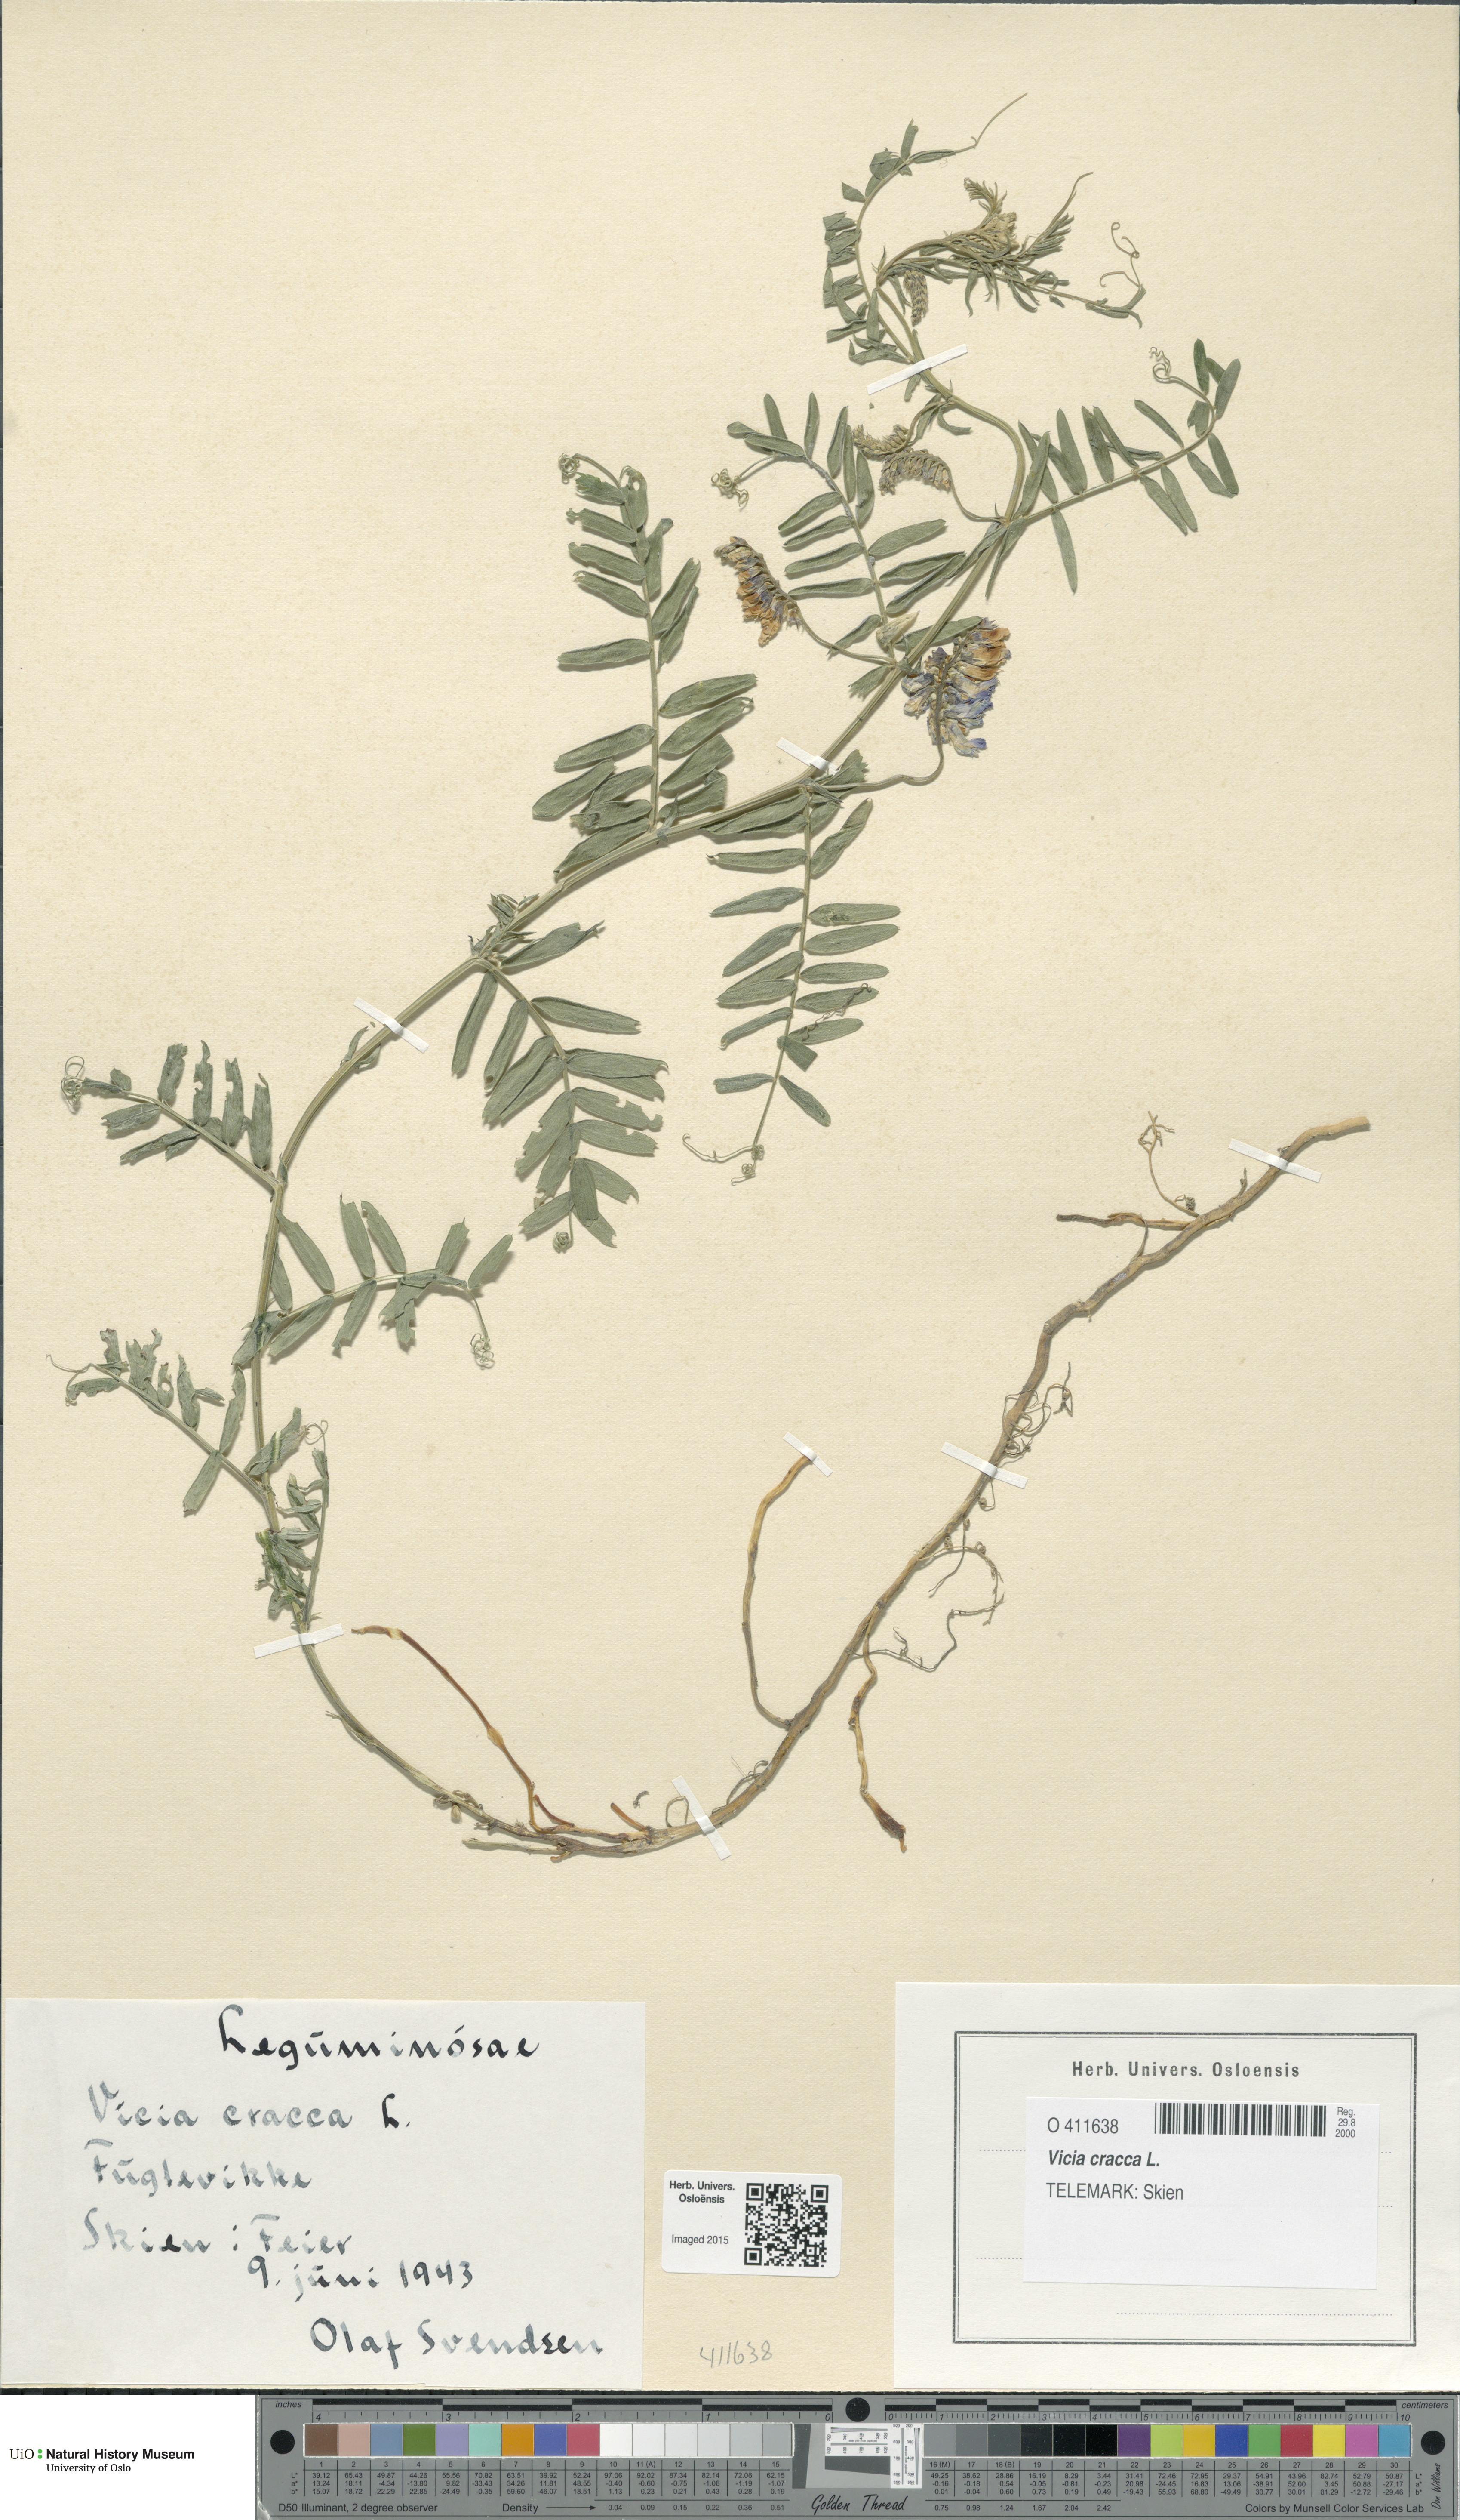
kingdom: Plantae
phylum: Tracheophyta
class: Magnoliopsida
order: Fabales
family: Fabaceae
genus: Vicia
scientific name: Vicia cracca
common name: Bird vetch
